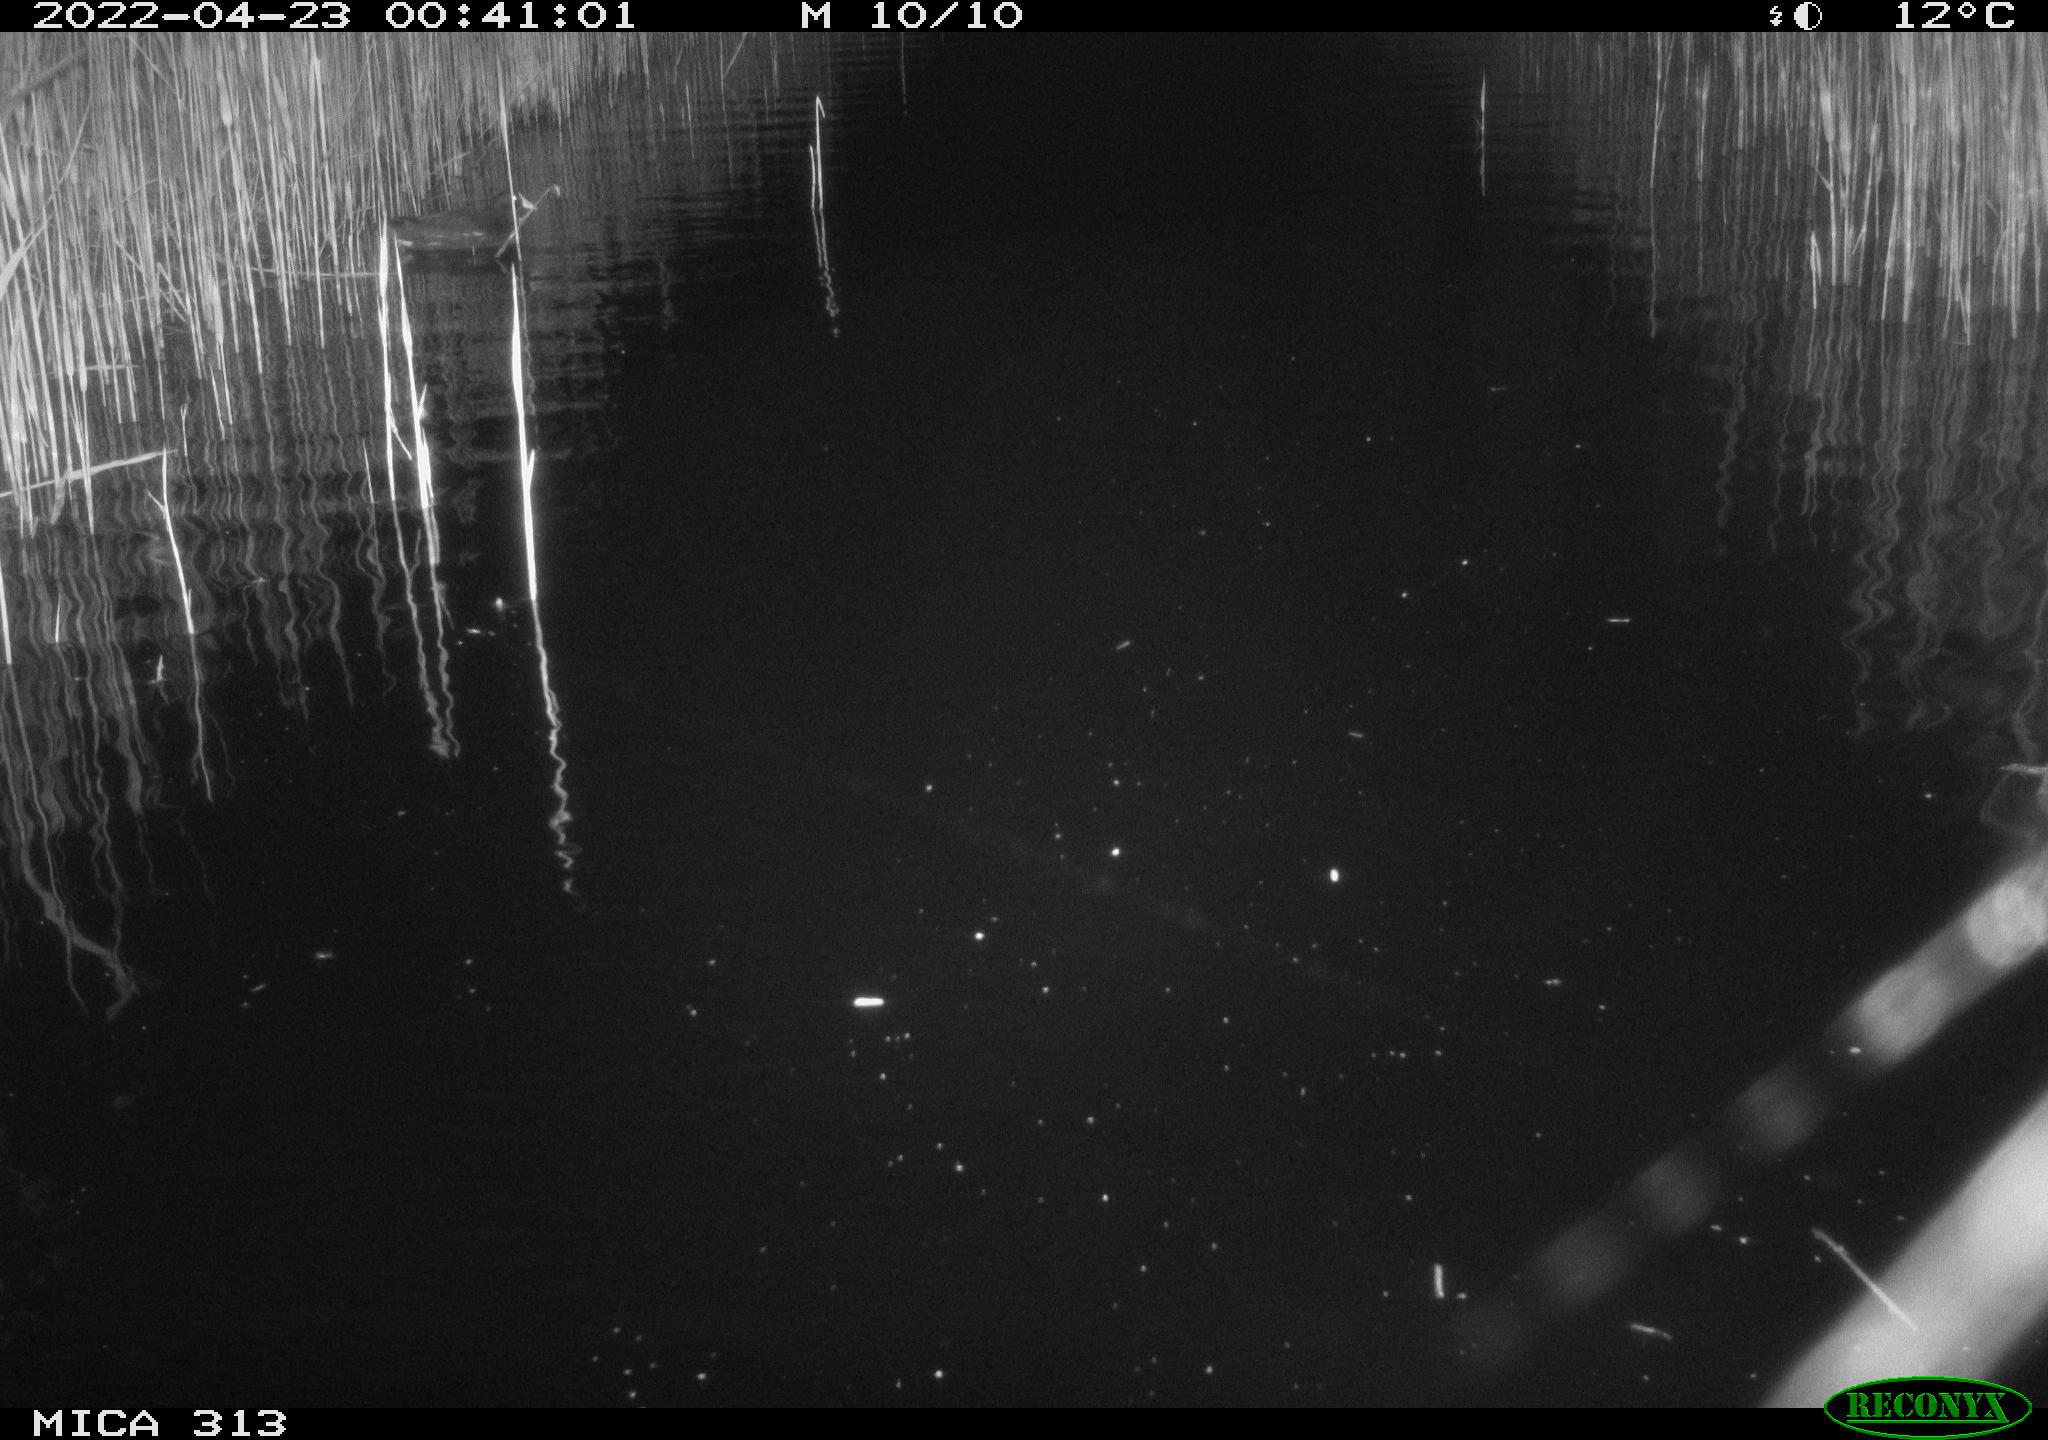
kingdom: Animalia
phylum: Chordata
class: Aves
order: Gruiformes
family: Rallidae
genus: Gallinula
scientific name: Gallinula chloropus
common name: Common moorhen
